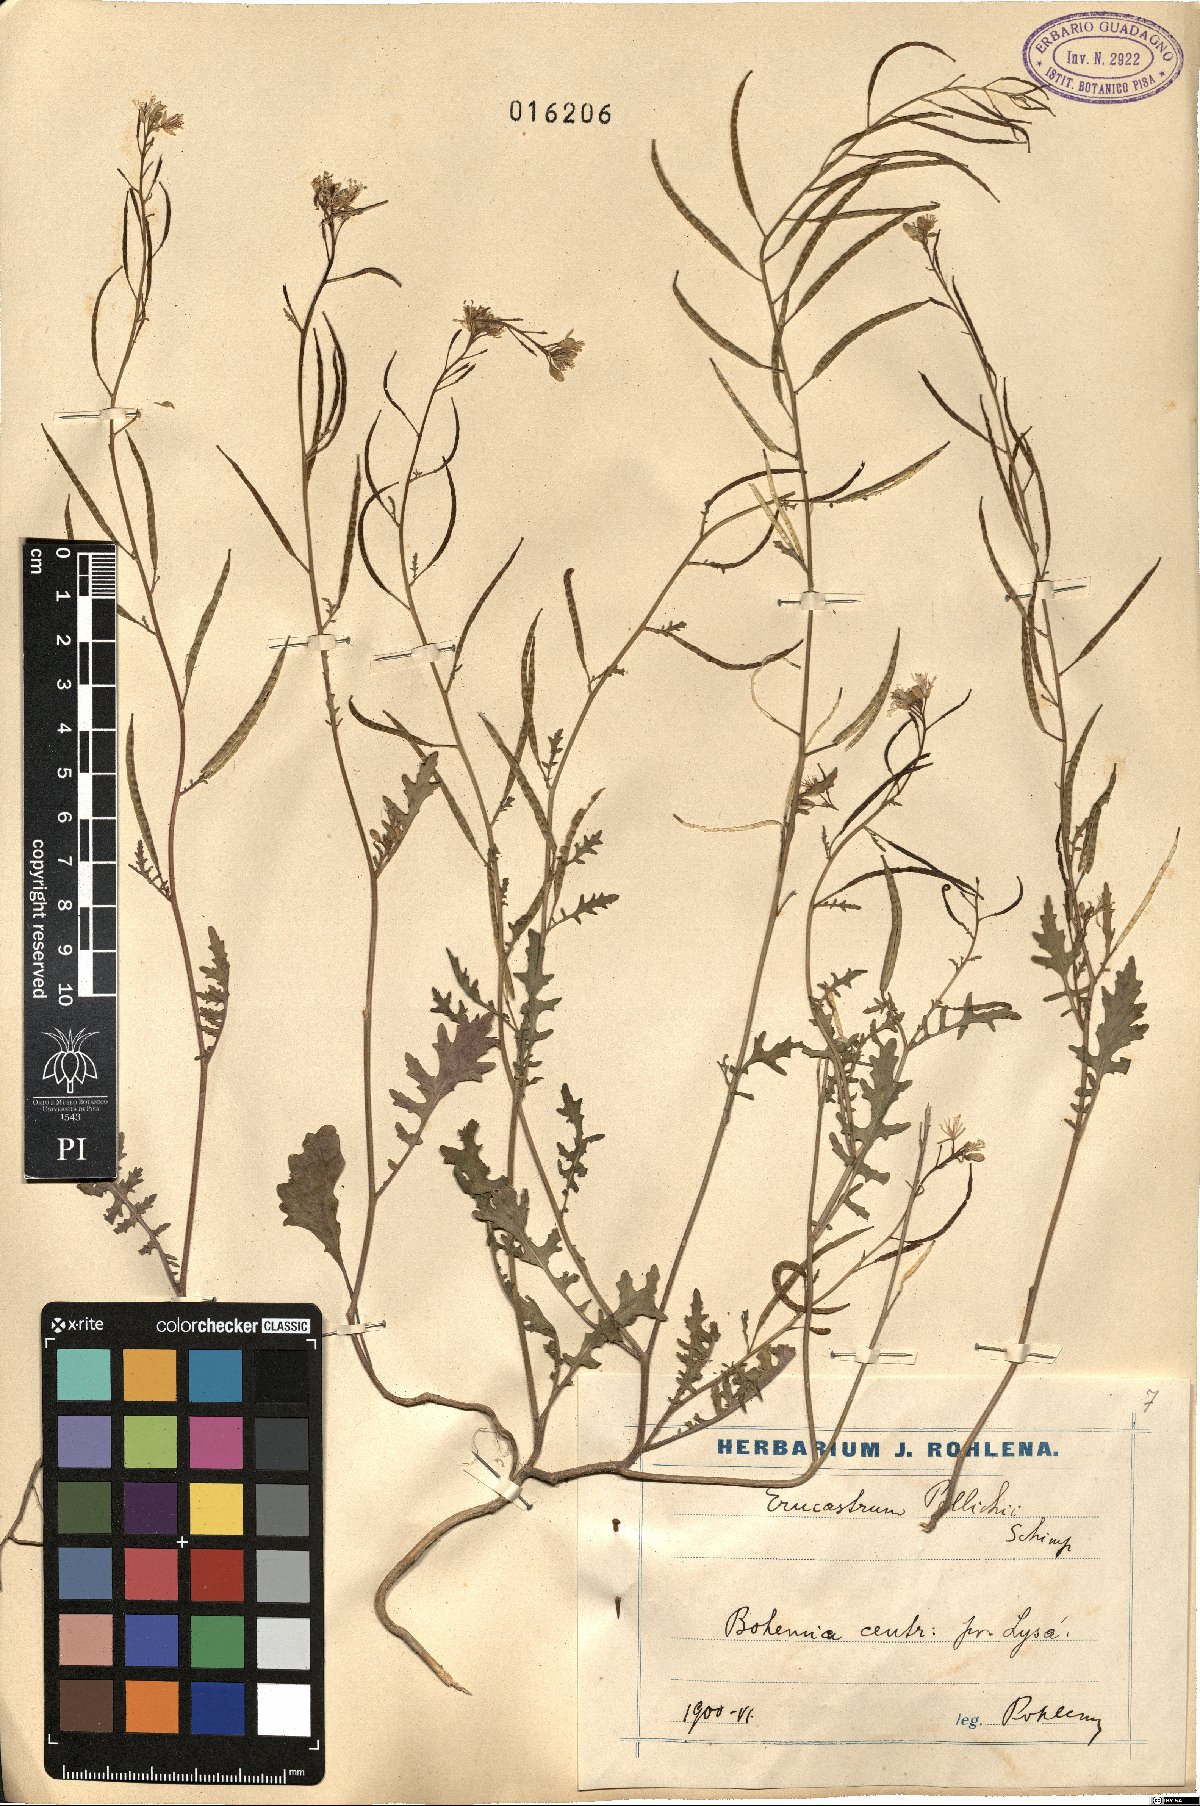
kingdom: Plantae
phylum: Tracheophyta
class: Magnoliopsida
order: Brassicales
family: Brassicaceae
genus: Erucastrum
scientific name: Erucastrum gallicum
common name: Hairy rocket
